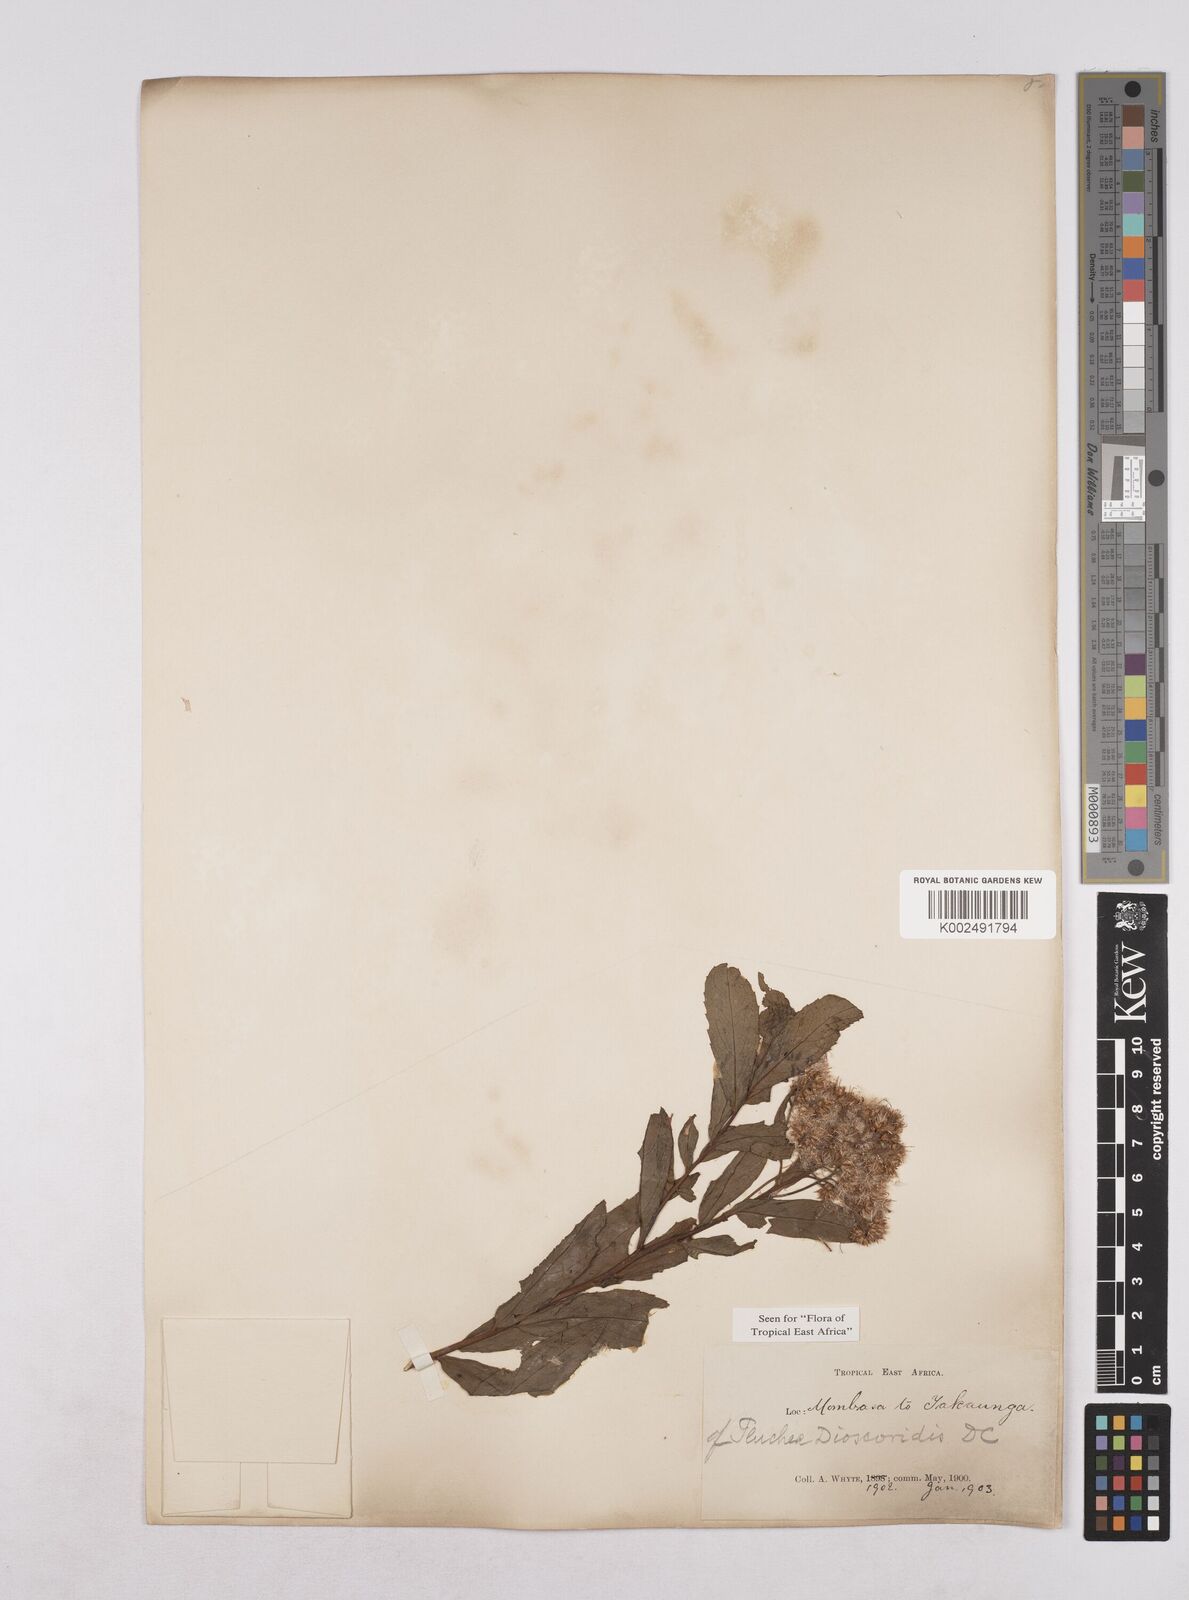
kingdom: Plantae
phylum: Tracheophyta
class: Magnoliopsida
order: Asterales
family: Asteraceae
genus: Pluchea
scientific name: Pluchea dioscoridis
